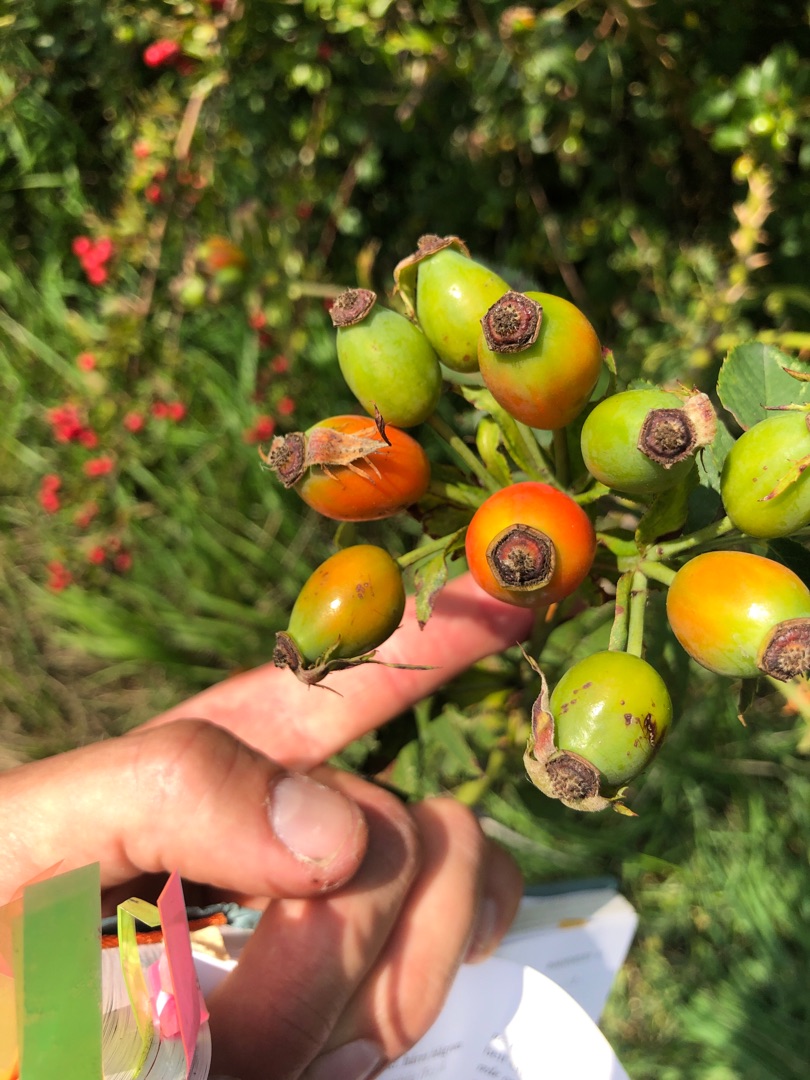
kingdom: Plantae
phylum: Tracheophyta
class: Magnoliopsida
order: Rosales
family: Rosaceae
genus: Rosa
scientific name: Rosa dumalis
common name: Blågrøn rose (underart)
